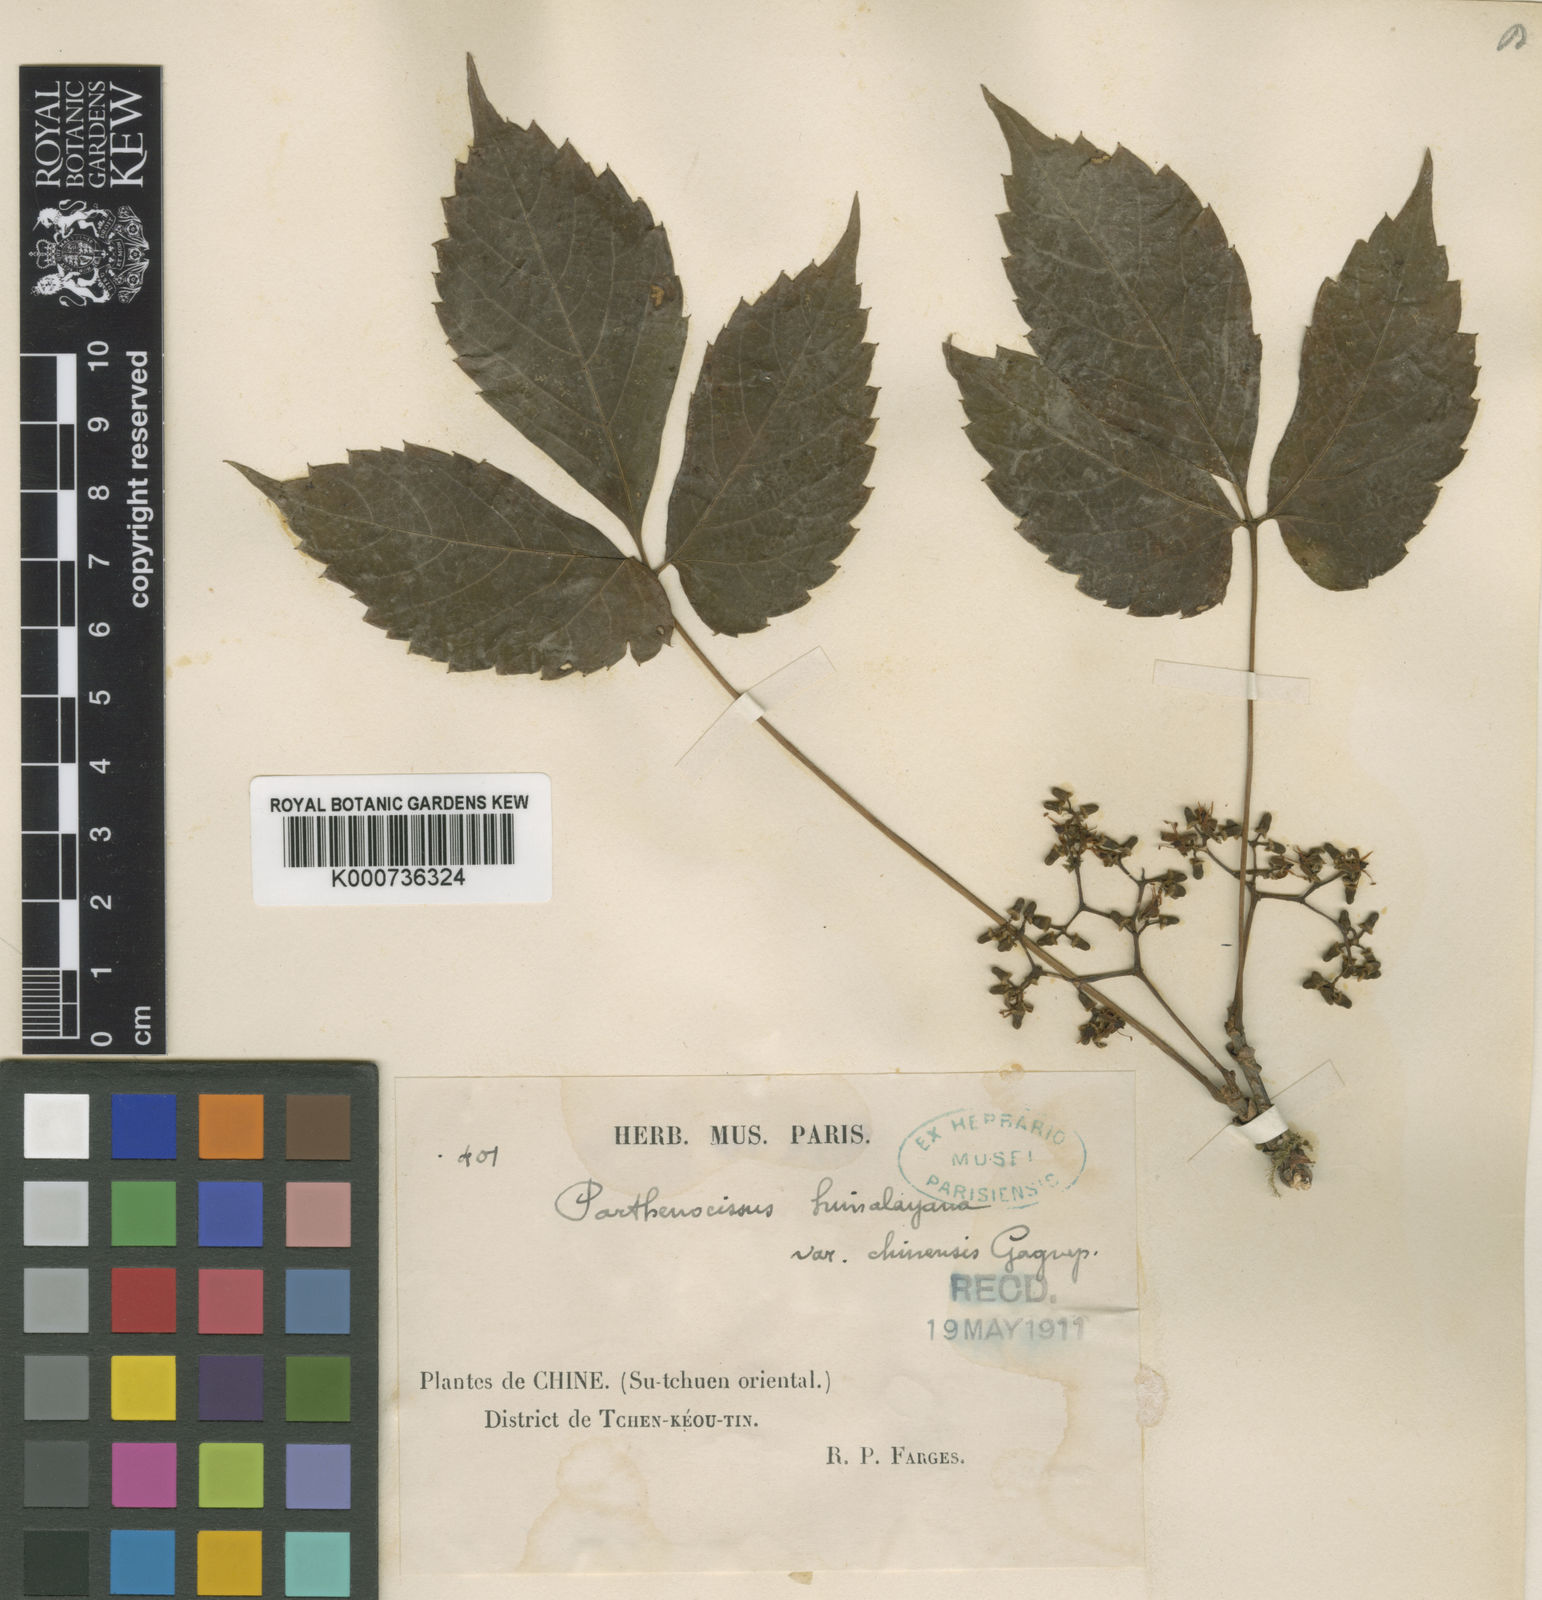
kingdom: Plantae
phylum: Tracheophyta
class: Magnoliopsida
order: Vitales
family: Vitaceae
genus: Parthenocissus
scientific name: Parthenocissus semicordata
